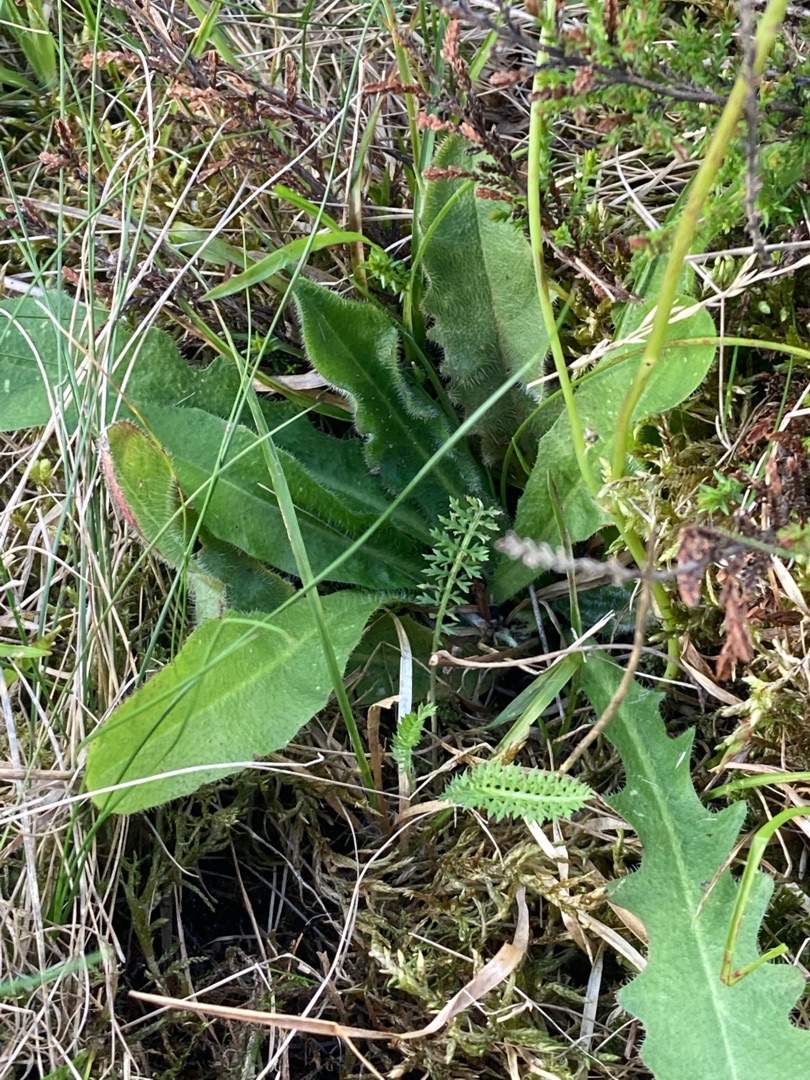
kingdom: Plantae
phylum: Tracheophyta
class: Magnoliopsida
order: Asterales
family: Asteraceae
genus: Hypochaeris
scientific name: Hypochaeris radicata
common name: Almindelig kongepen
